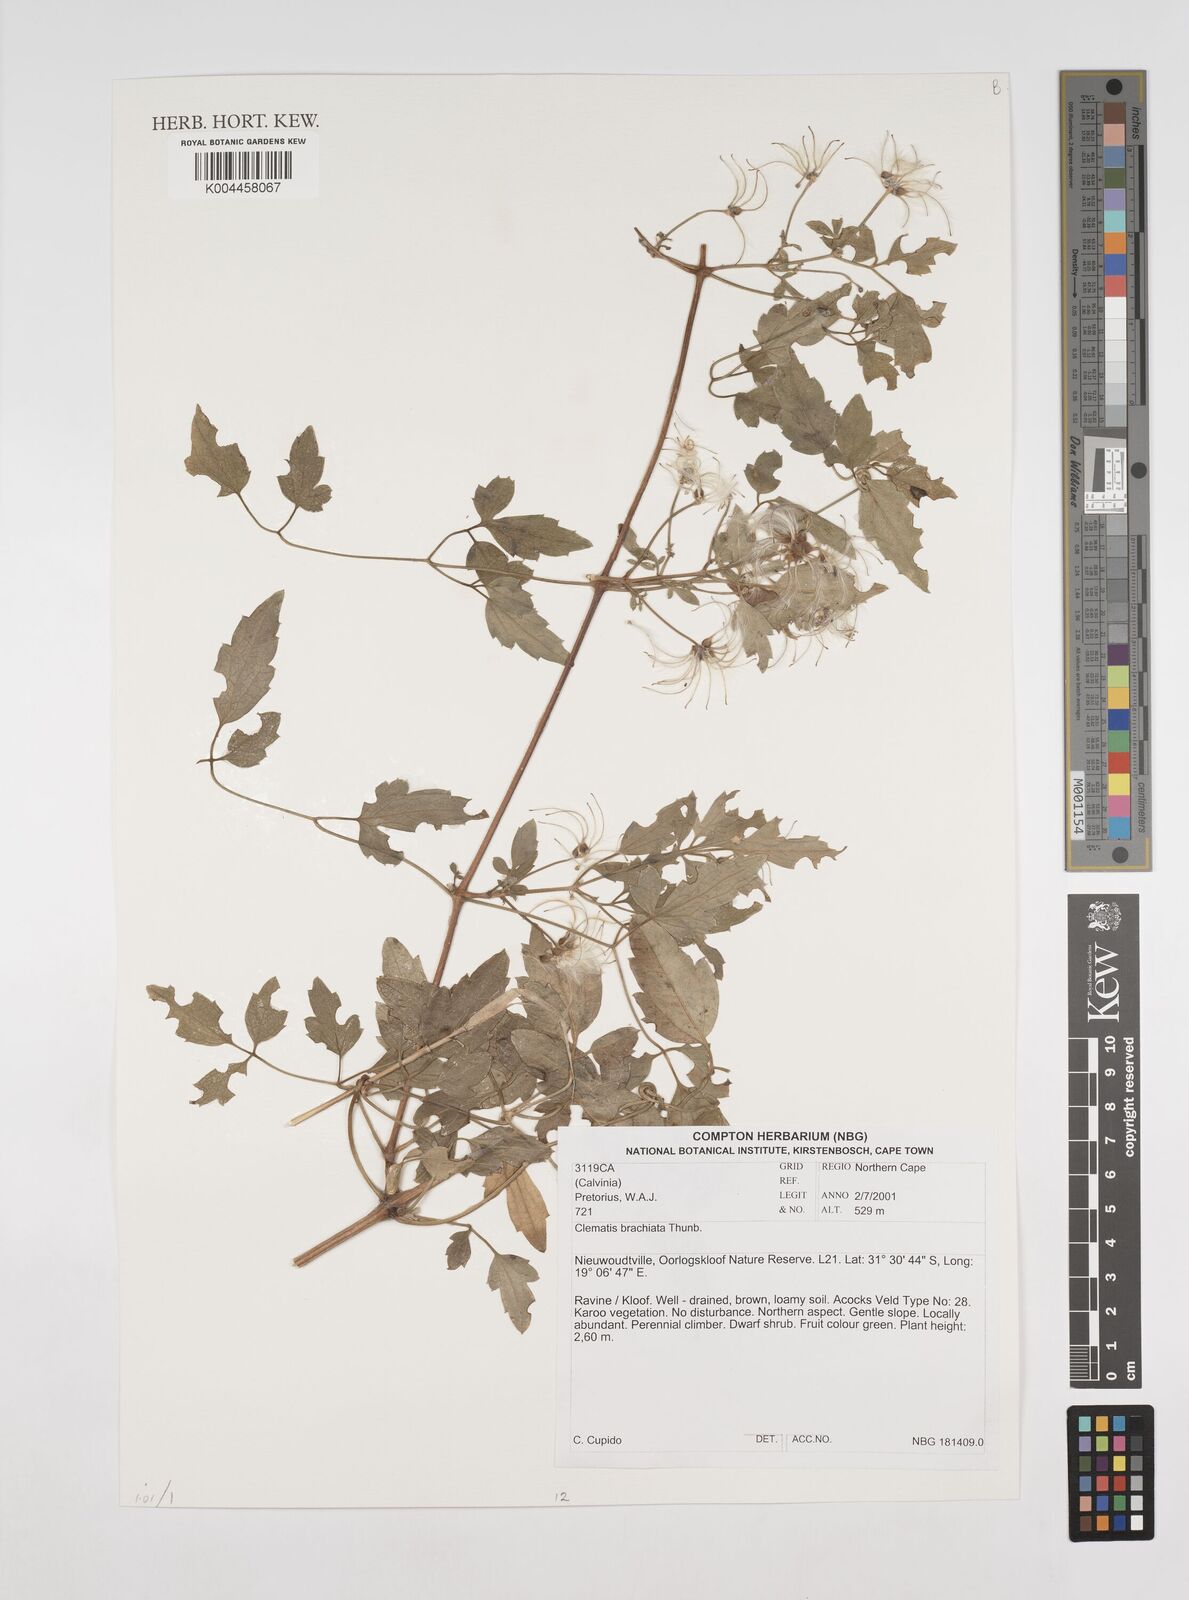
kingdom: Plantae
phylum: Tracheophyta
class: Magnoliopsida
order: Ranunculales
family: Ranunculaceae
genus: Clematis
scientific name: Clematis brachiata
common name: Traveler's-joy
